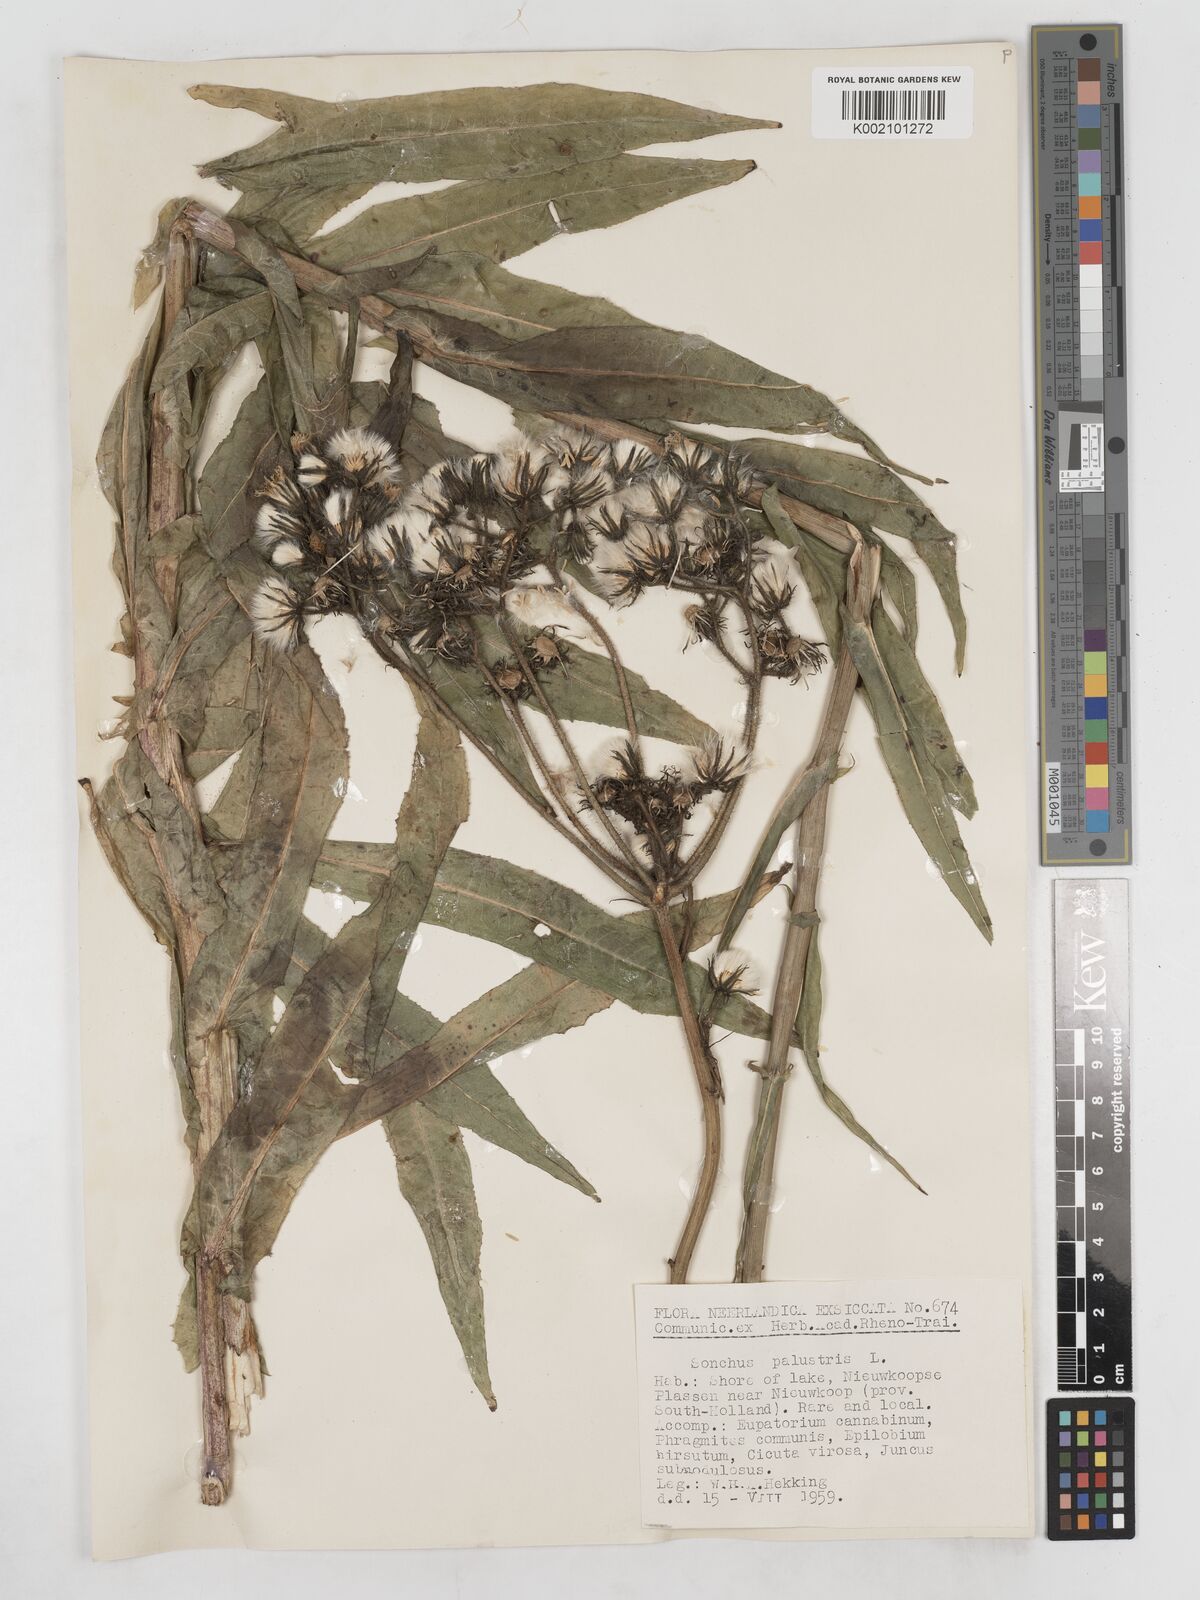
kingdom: Plantae
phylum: Tracheophyta
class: Magnoliopsida
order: Asterales
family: Asteraceae
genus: Sonchus
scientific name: Sonchus palustris
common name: Marsh sow-thistle
